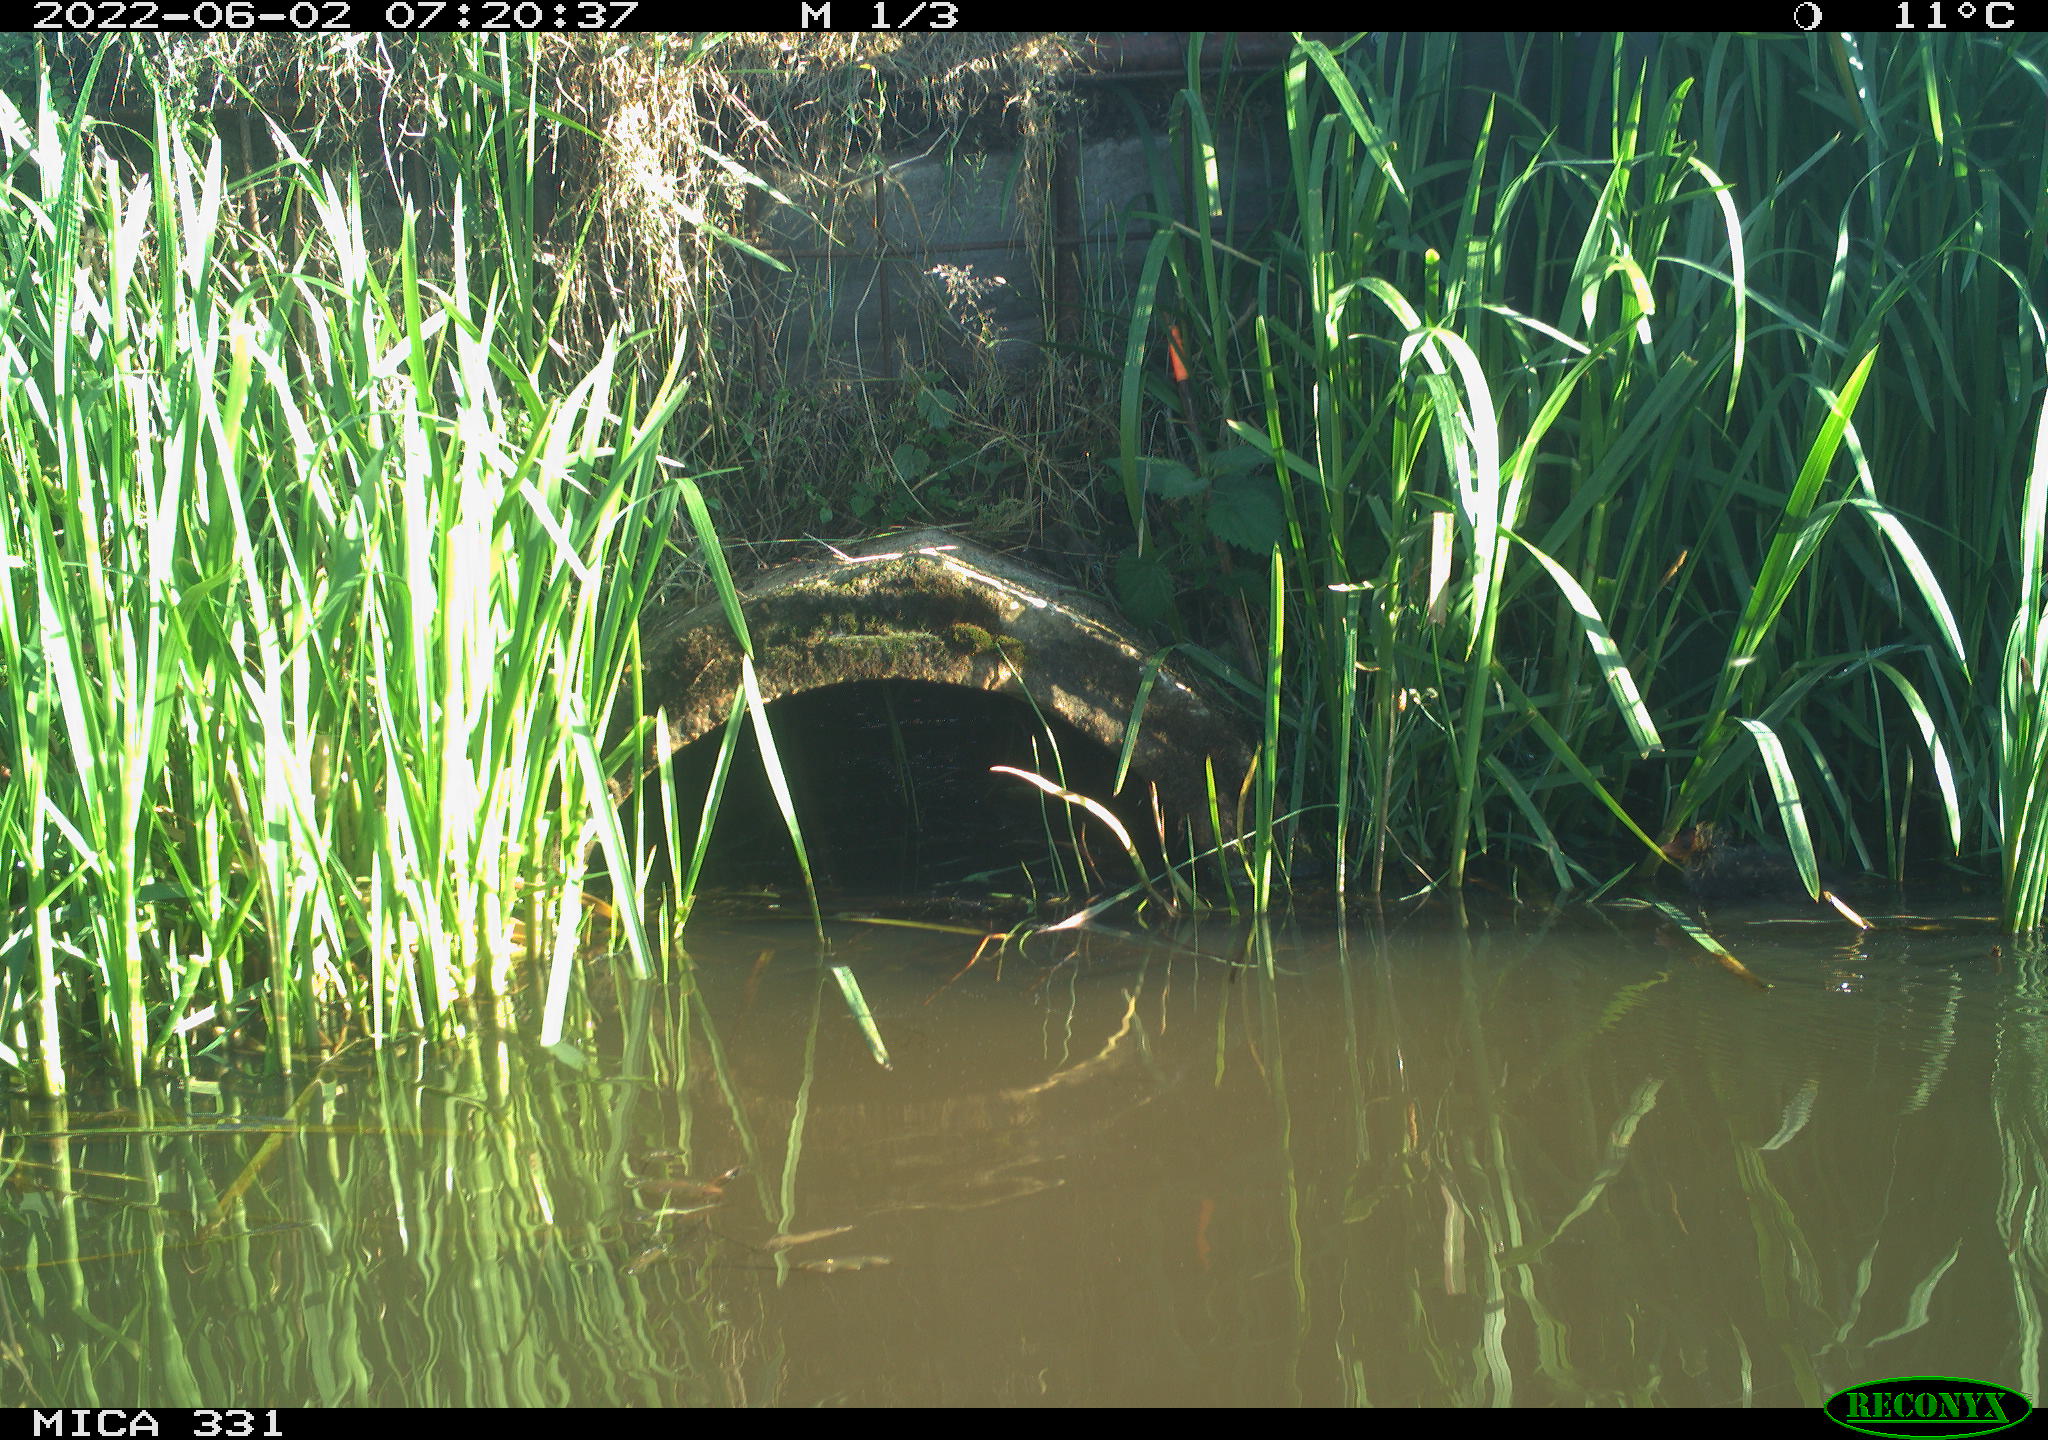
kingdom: Animalia
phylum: Chordata
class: Aves
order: Gruiformes
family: Rallidae
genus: Fulica
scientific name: Fulica atra
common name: Eurasian coot
